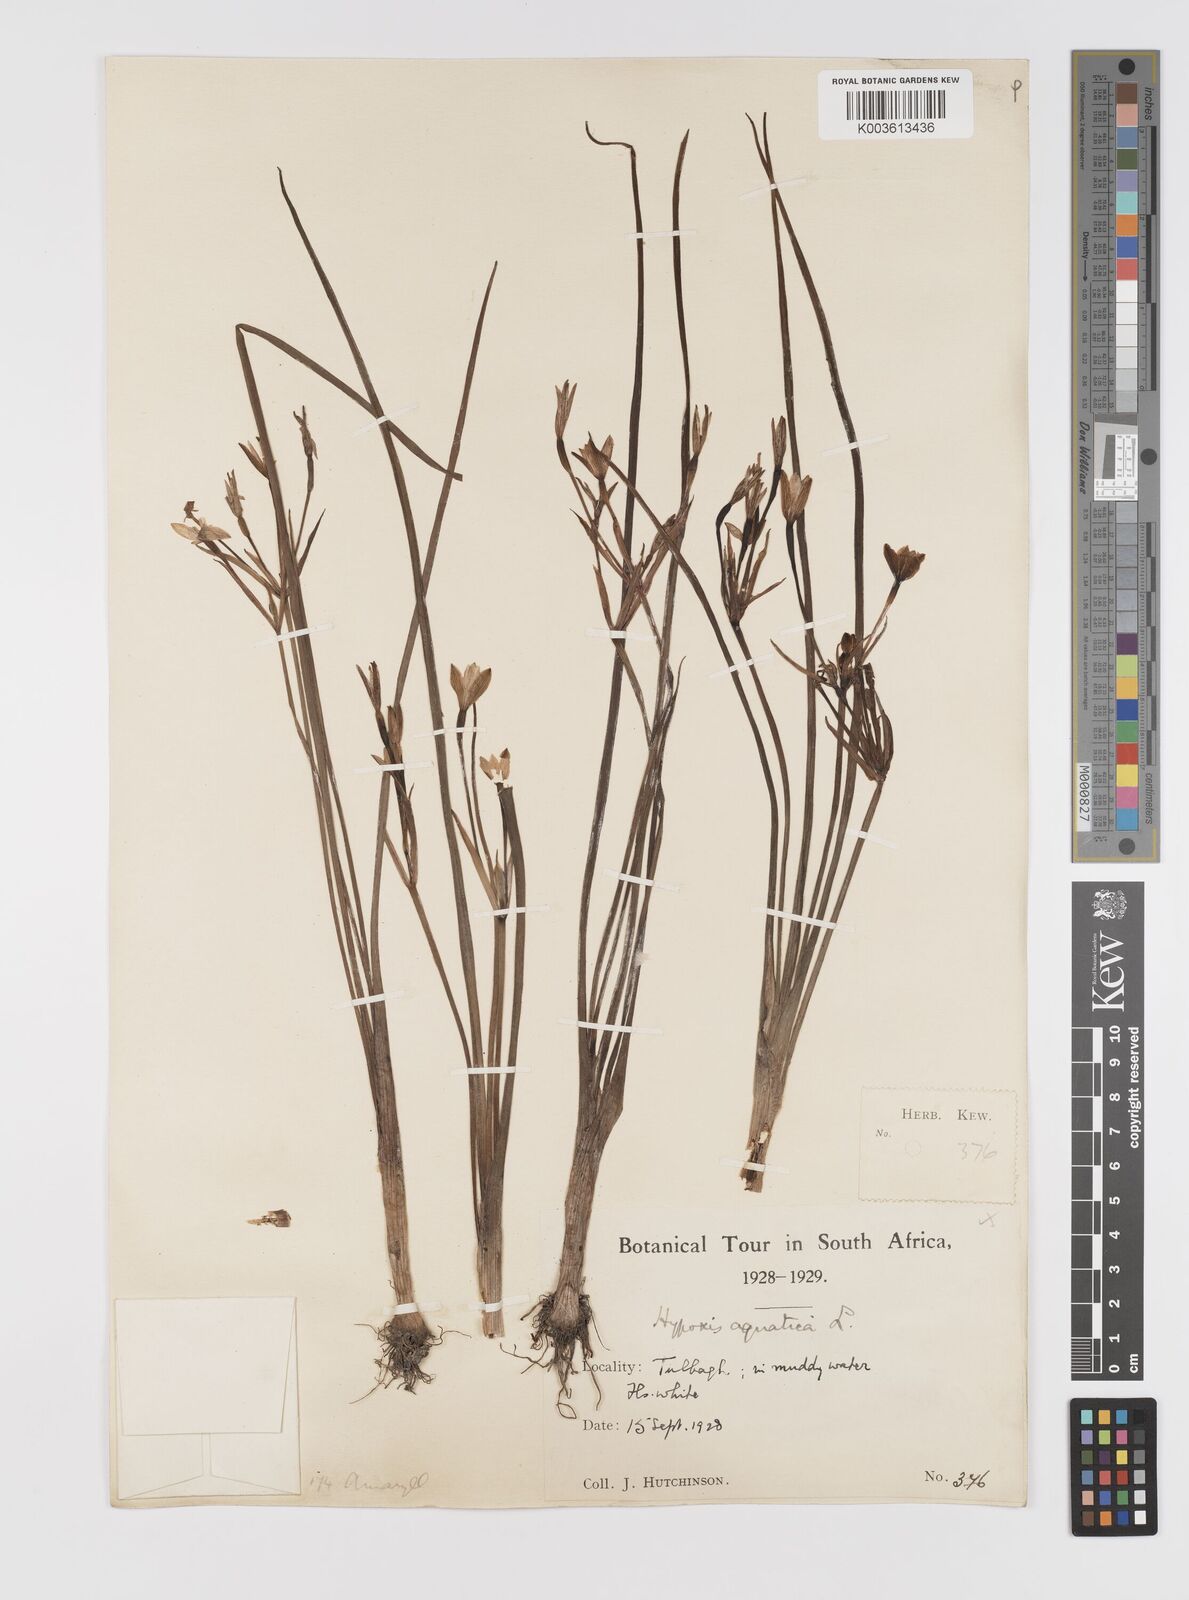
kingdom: Plantae
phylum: Tracheophyta
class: Liliopsida
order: Asparagales
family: Hypoxidaceae
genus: Pauridia
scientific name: Pauridia aquatica
